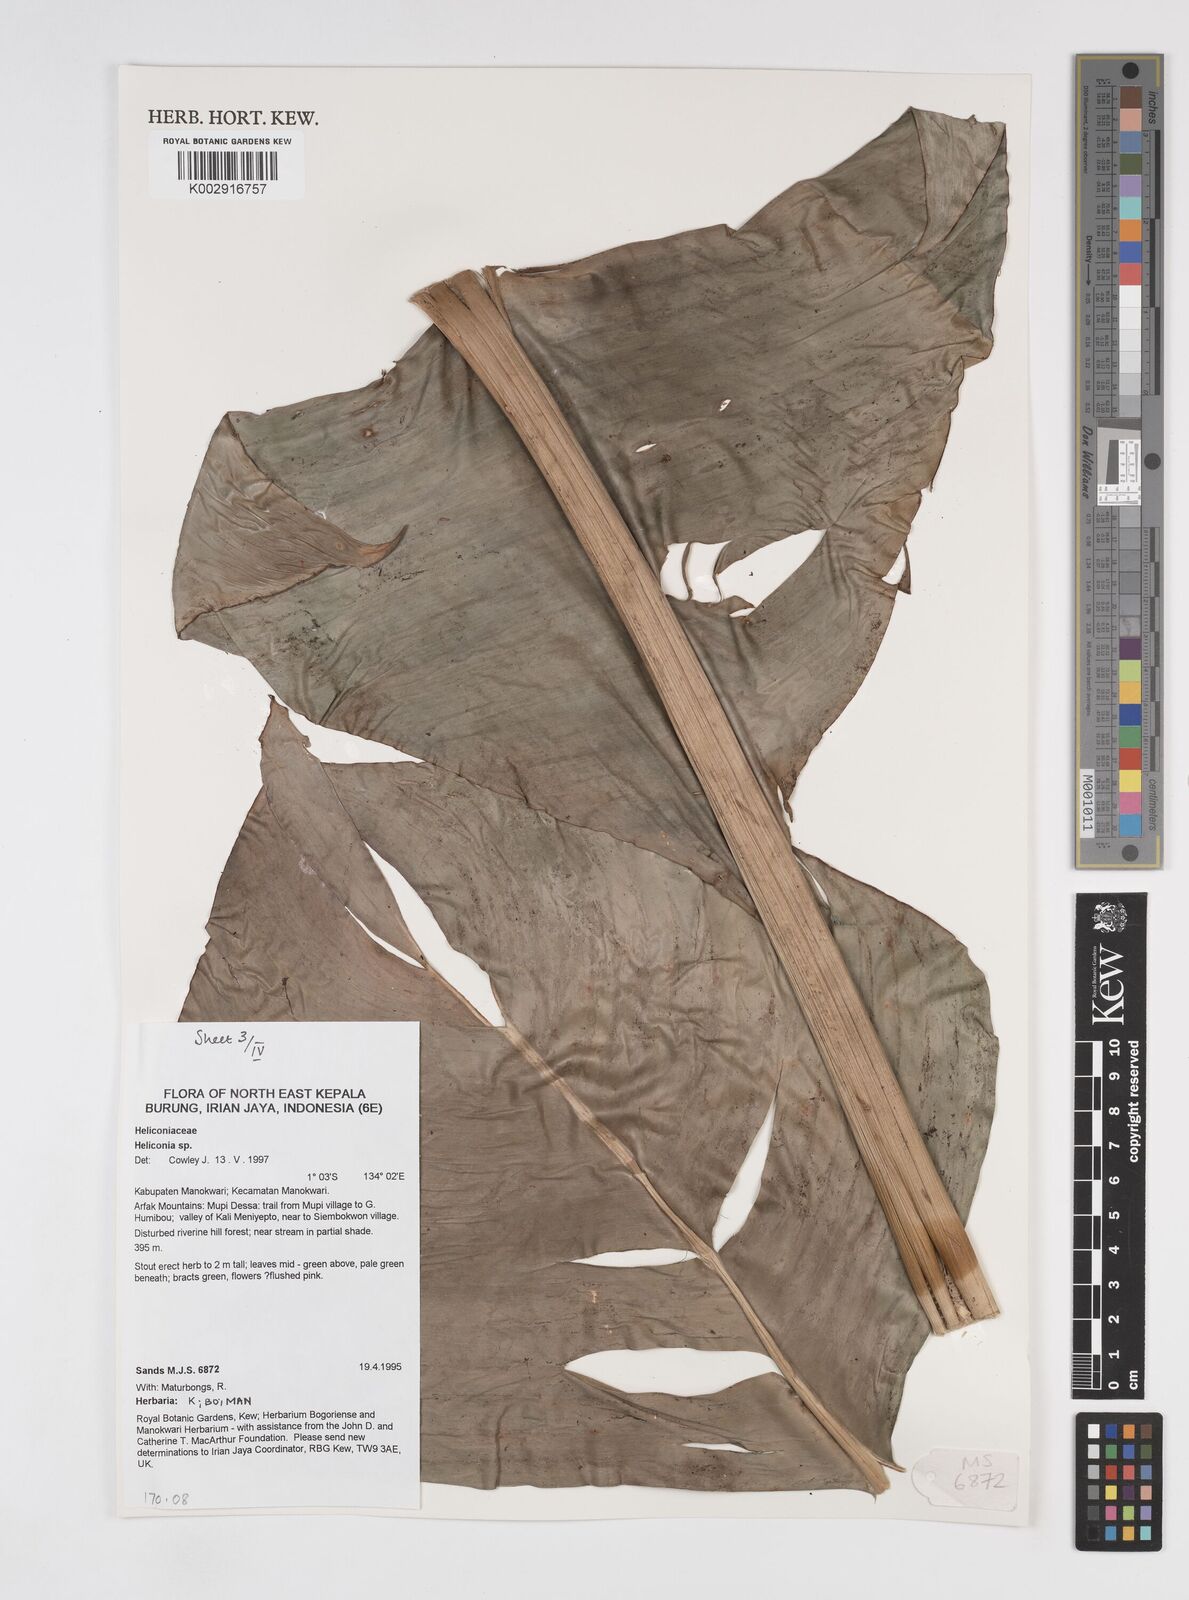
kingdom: Plantae
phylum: Tracheophyta
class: Liliopsida
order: Zingiberales
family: Heliconiaceae
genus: Heliconia
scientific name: Heliconia
